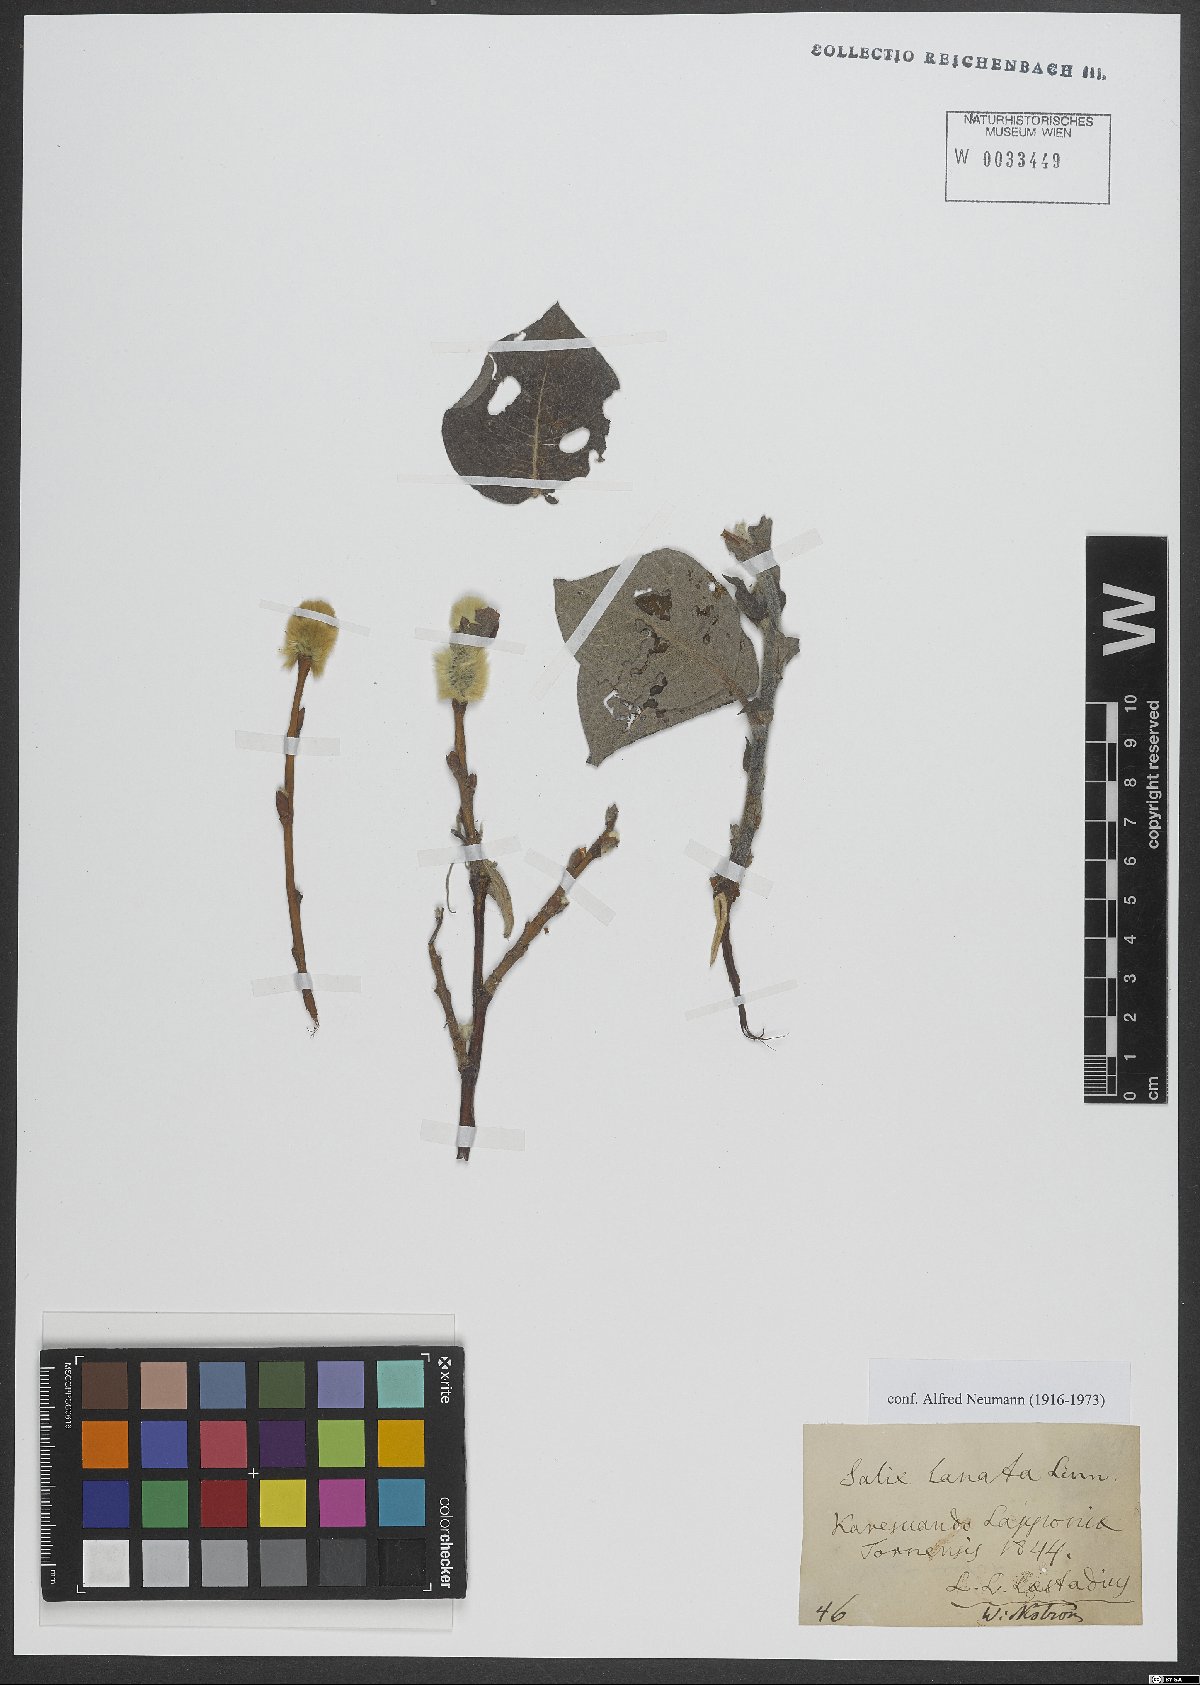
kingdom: Plantae
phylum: Tracheophyta
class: Magnoliopsida
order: Malpighiales
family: Salicaceae
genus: Salix
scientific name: Salix lanata
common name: Woolly willow
